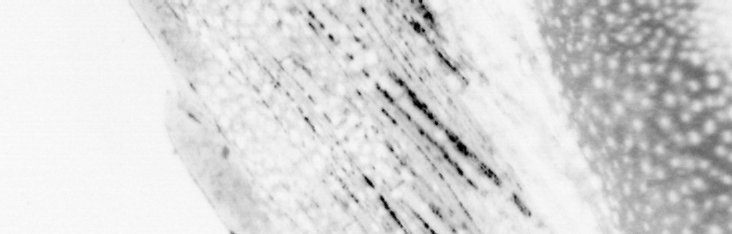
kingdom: Animalia
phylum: Chordata
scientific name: Chordata
